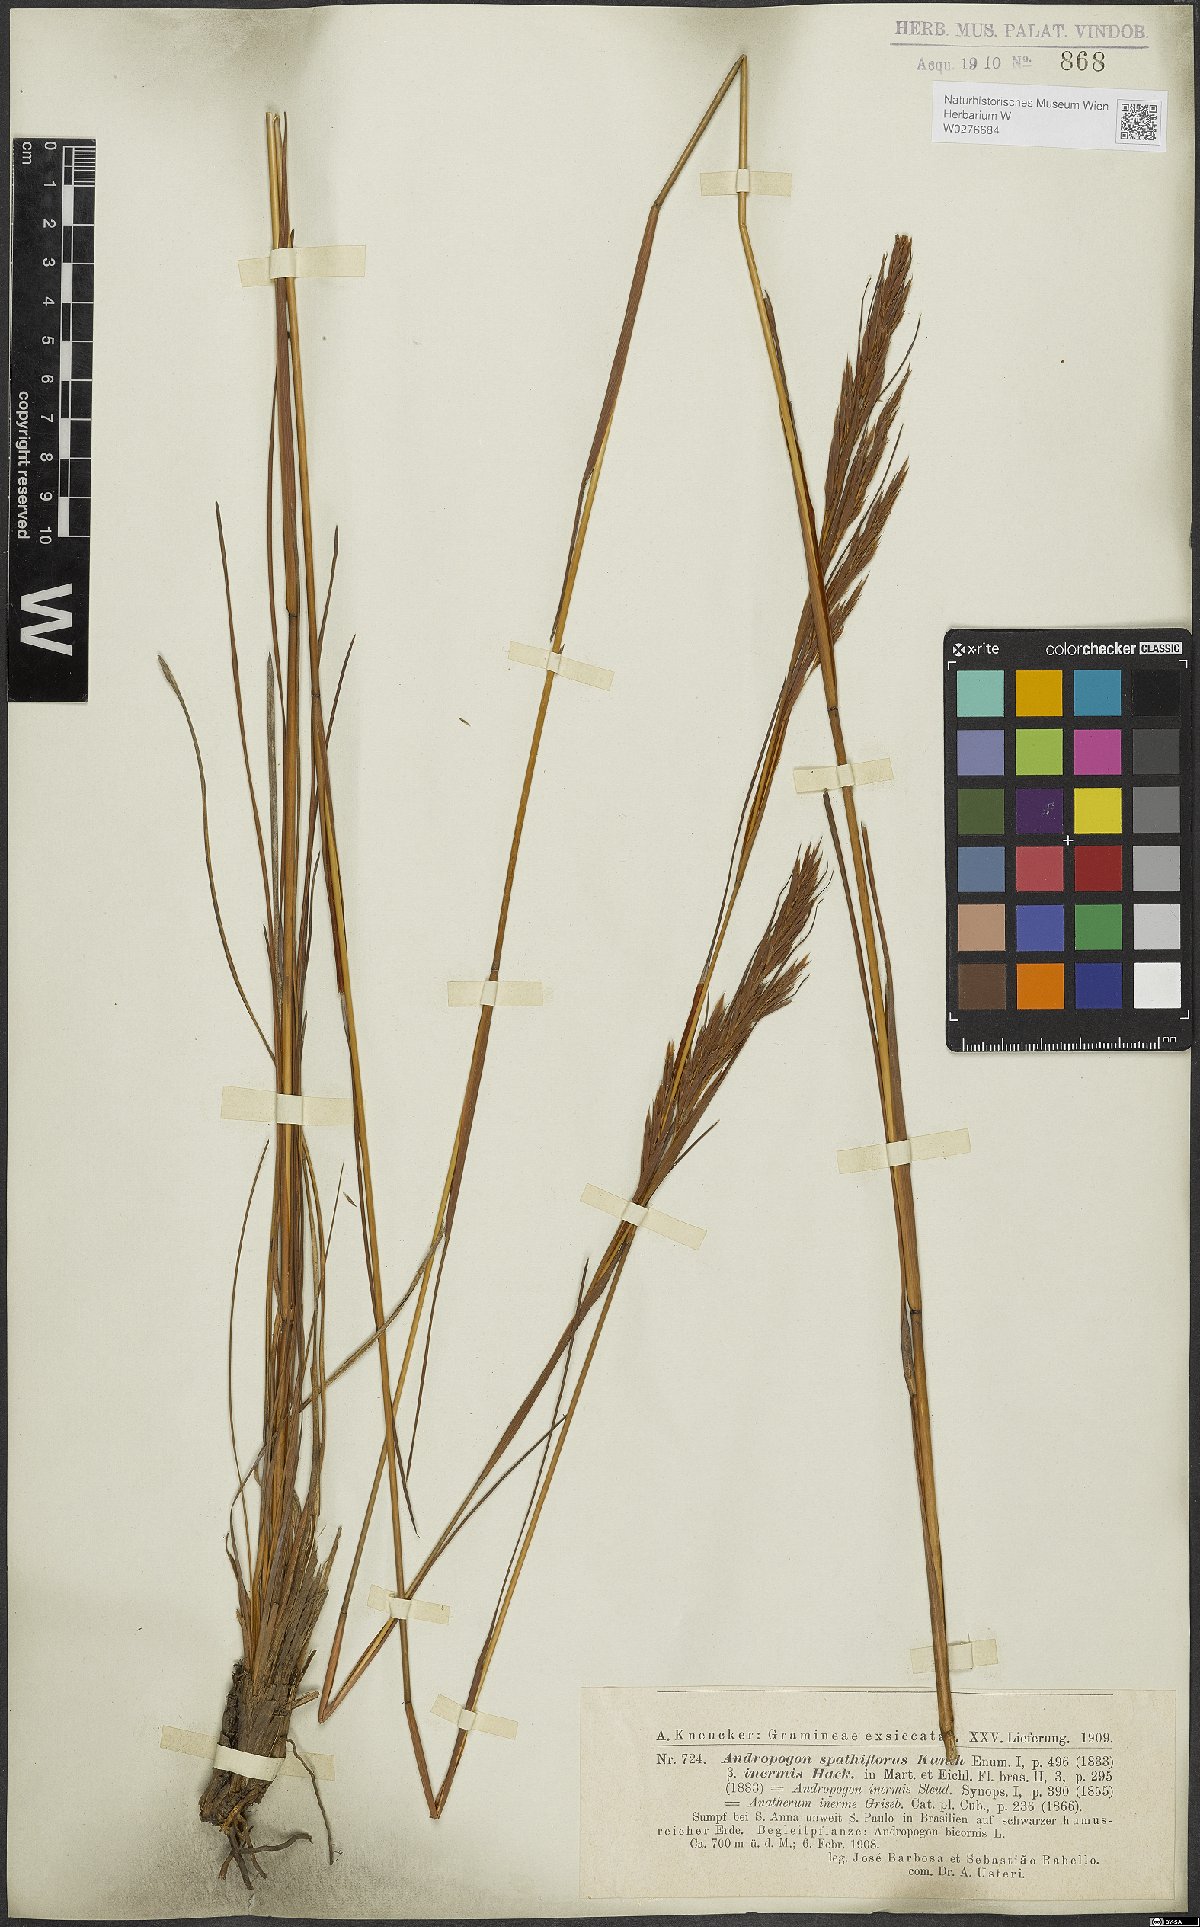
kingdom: Plantae
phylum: Tracheophyta
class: Liliopsida
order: Poales
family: Poaceae
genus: Andropogon
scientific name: Andropogon virgatus
